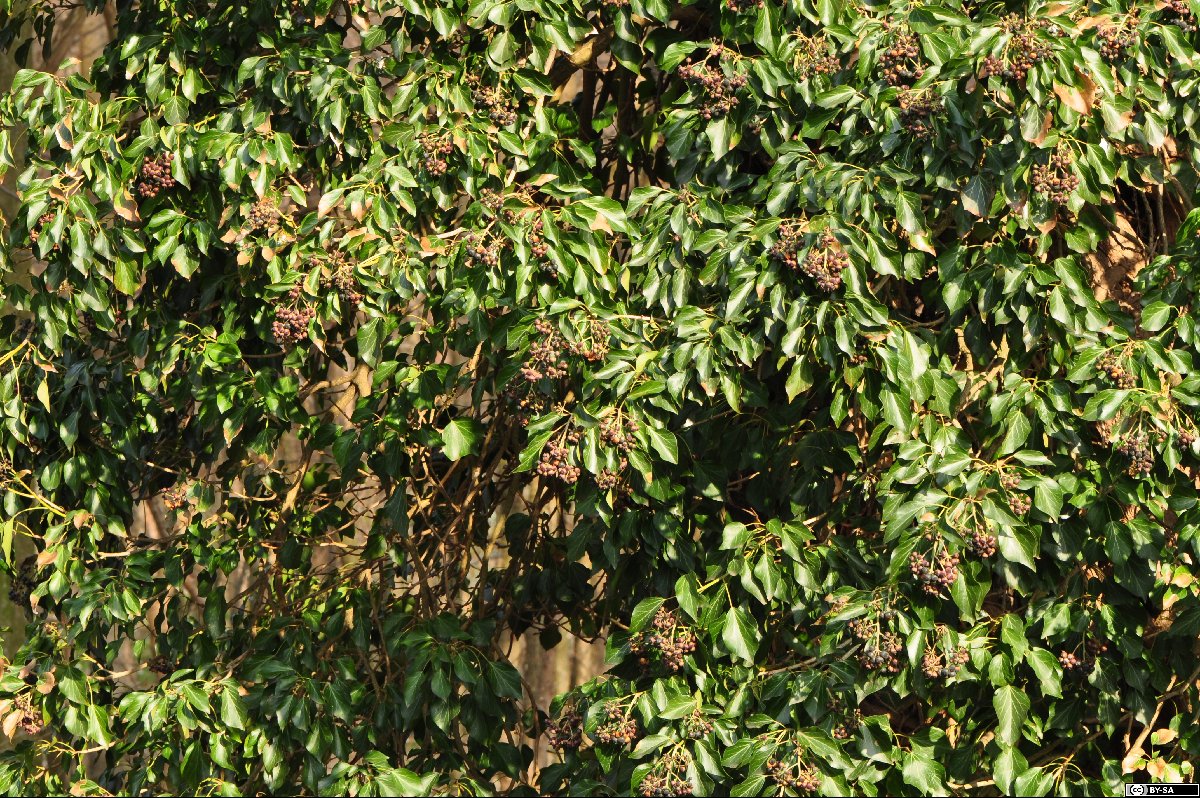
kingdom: Plantae
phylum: Tracheophyta
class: Magnoliopsida
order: Apiales
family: Araliaceae
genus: Hedera
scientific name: Hedera helix
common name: Ivy
